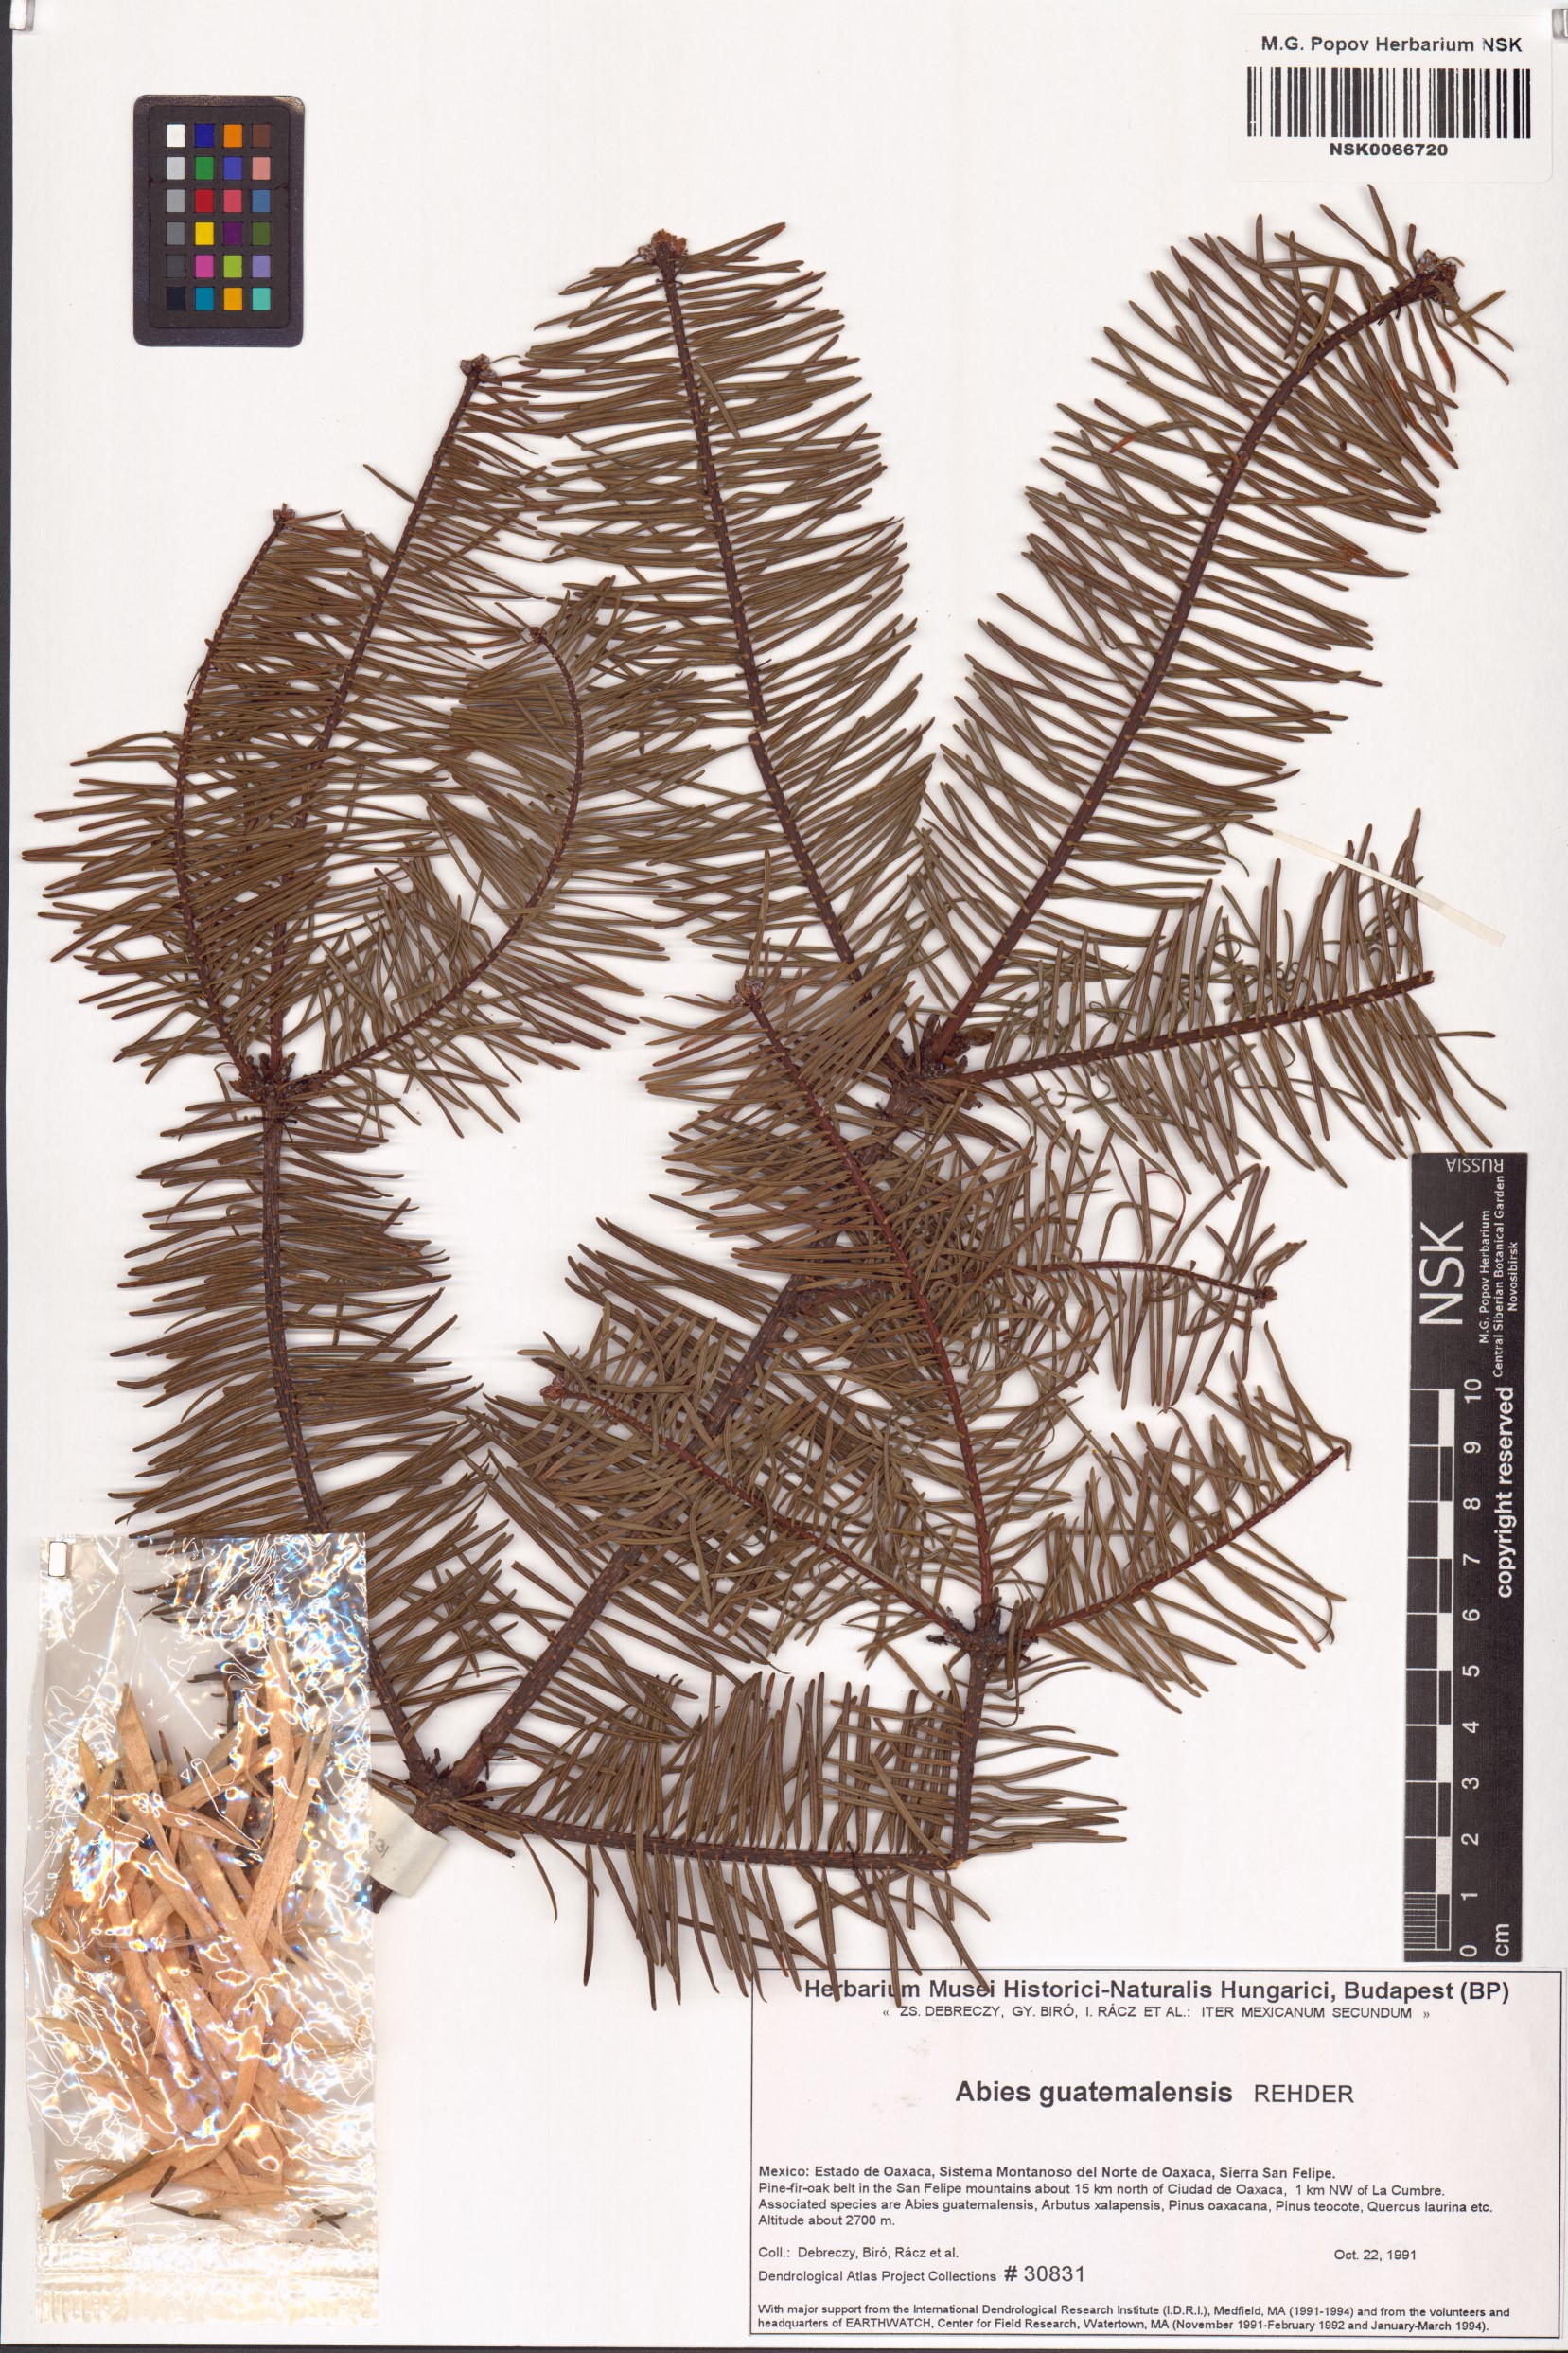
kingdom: Plantae
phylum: Tracheophyta
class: Pinopsida
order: Pinales
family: Pinaceae
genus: Abies
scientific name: Abies guatemalensis
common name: Guatemalan fir
